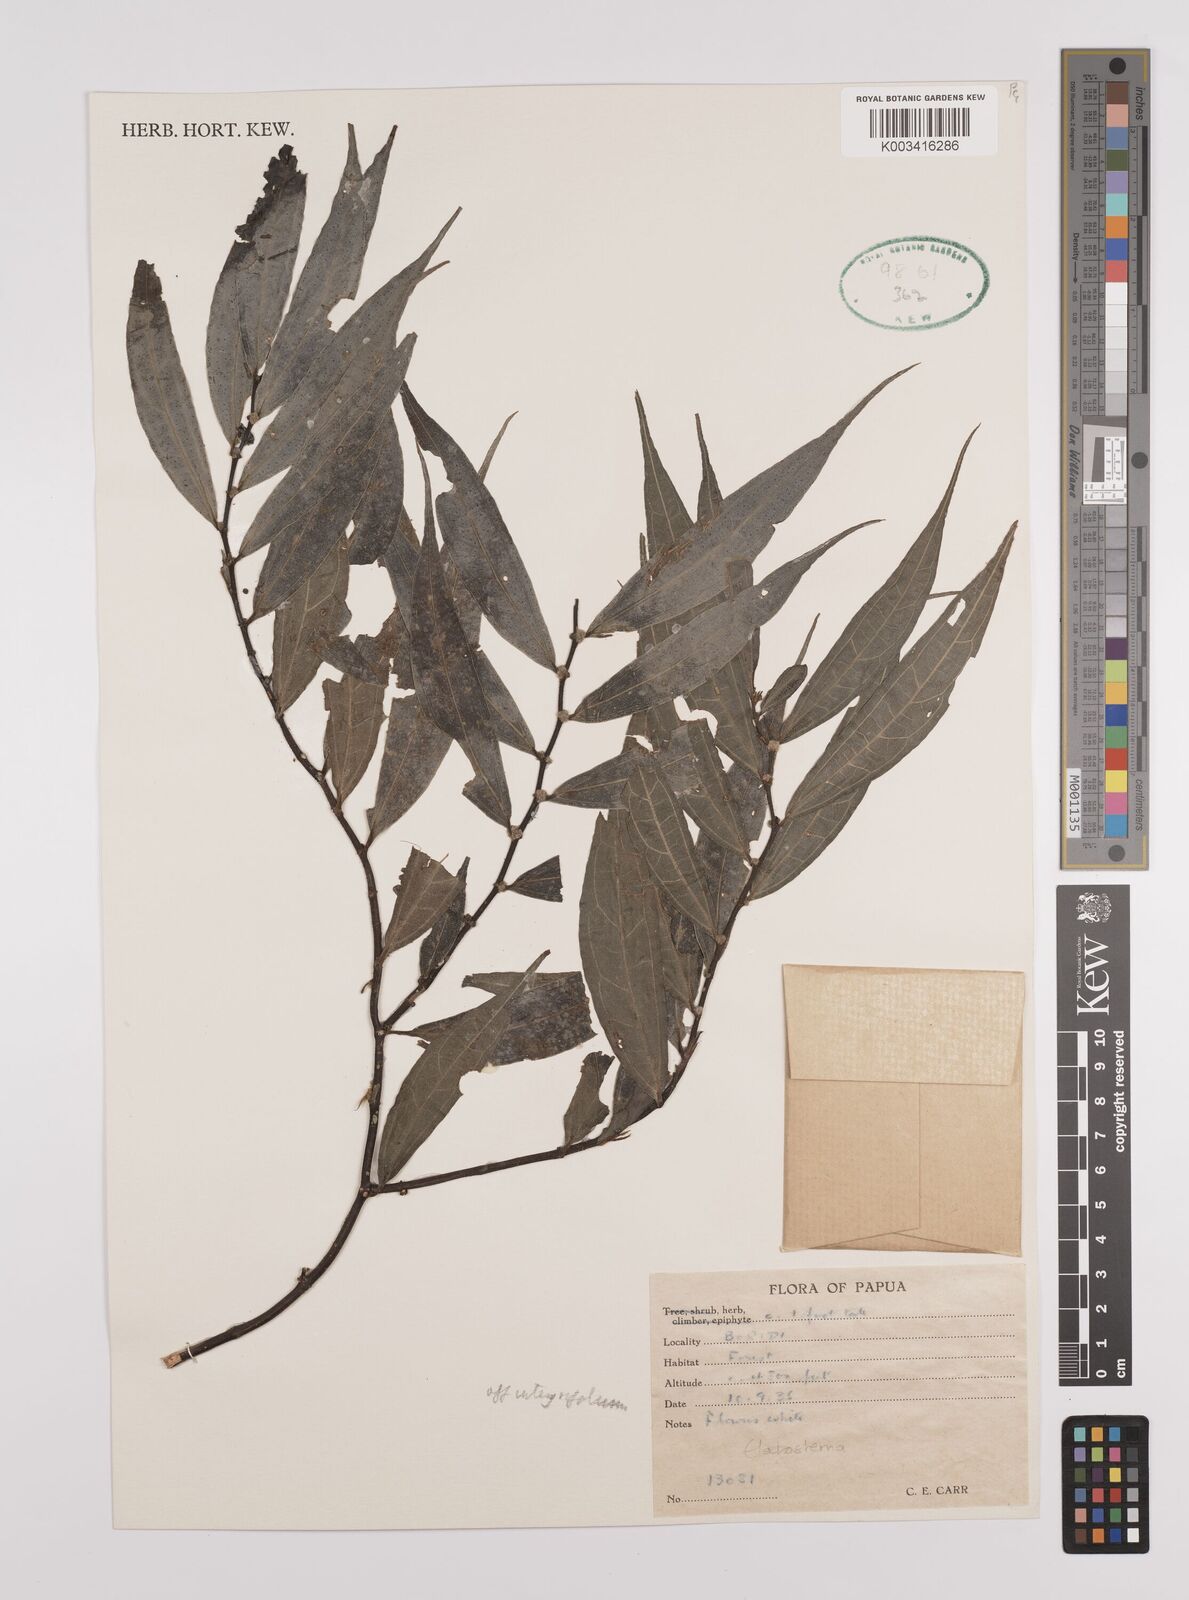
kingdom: Plantae
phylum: Tracheophyta
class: Magnoliopsida
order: Rosales
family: Urticaceae
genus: Elatostema
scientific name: Elatostema integrifolium
